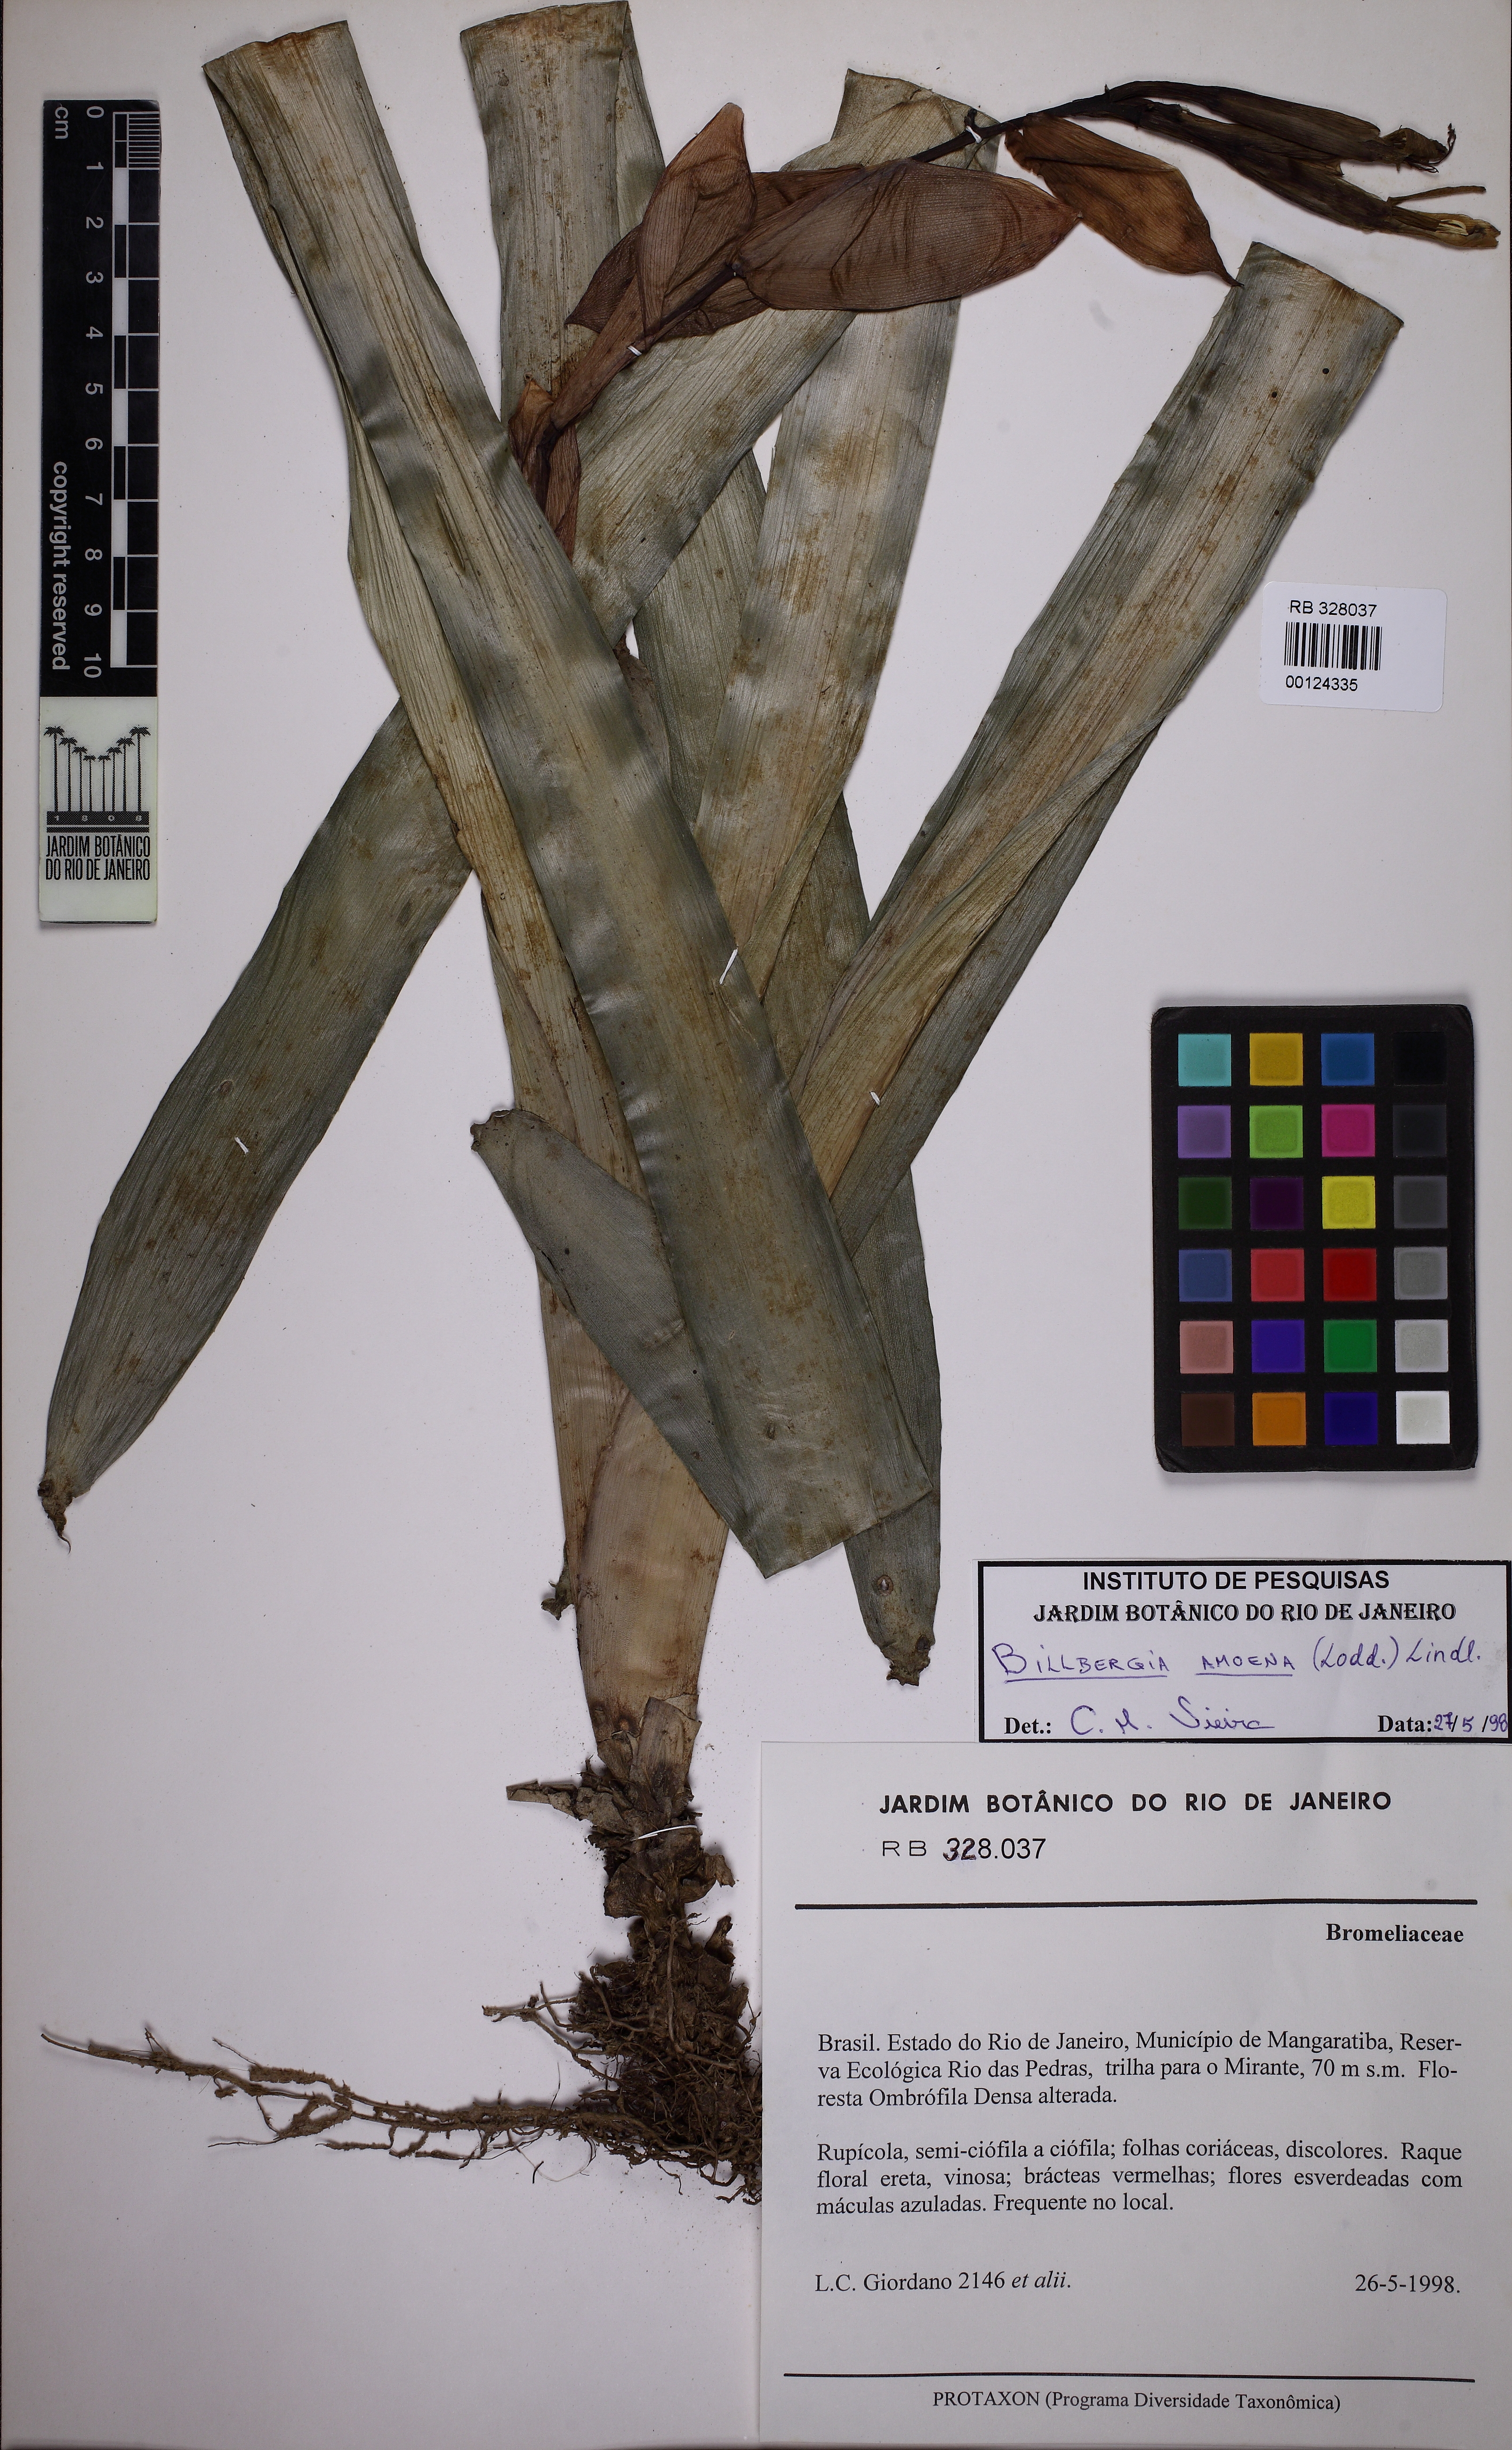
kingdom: Plantae
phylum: Tracheophyta
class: Liliopsida
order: Poales
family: Bromeliaceae
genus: Billbergia
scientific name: Billbergia amoena
